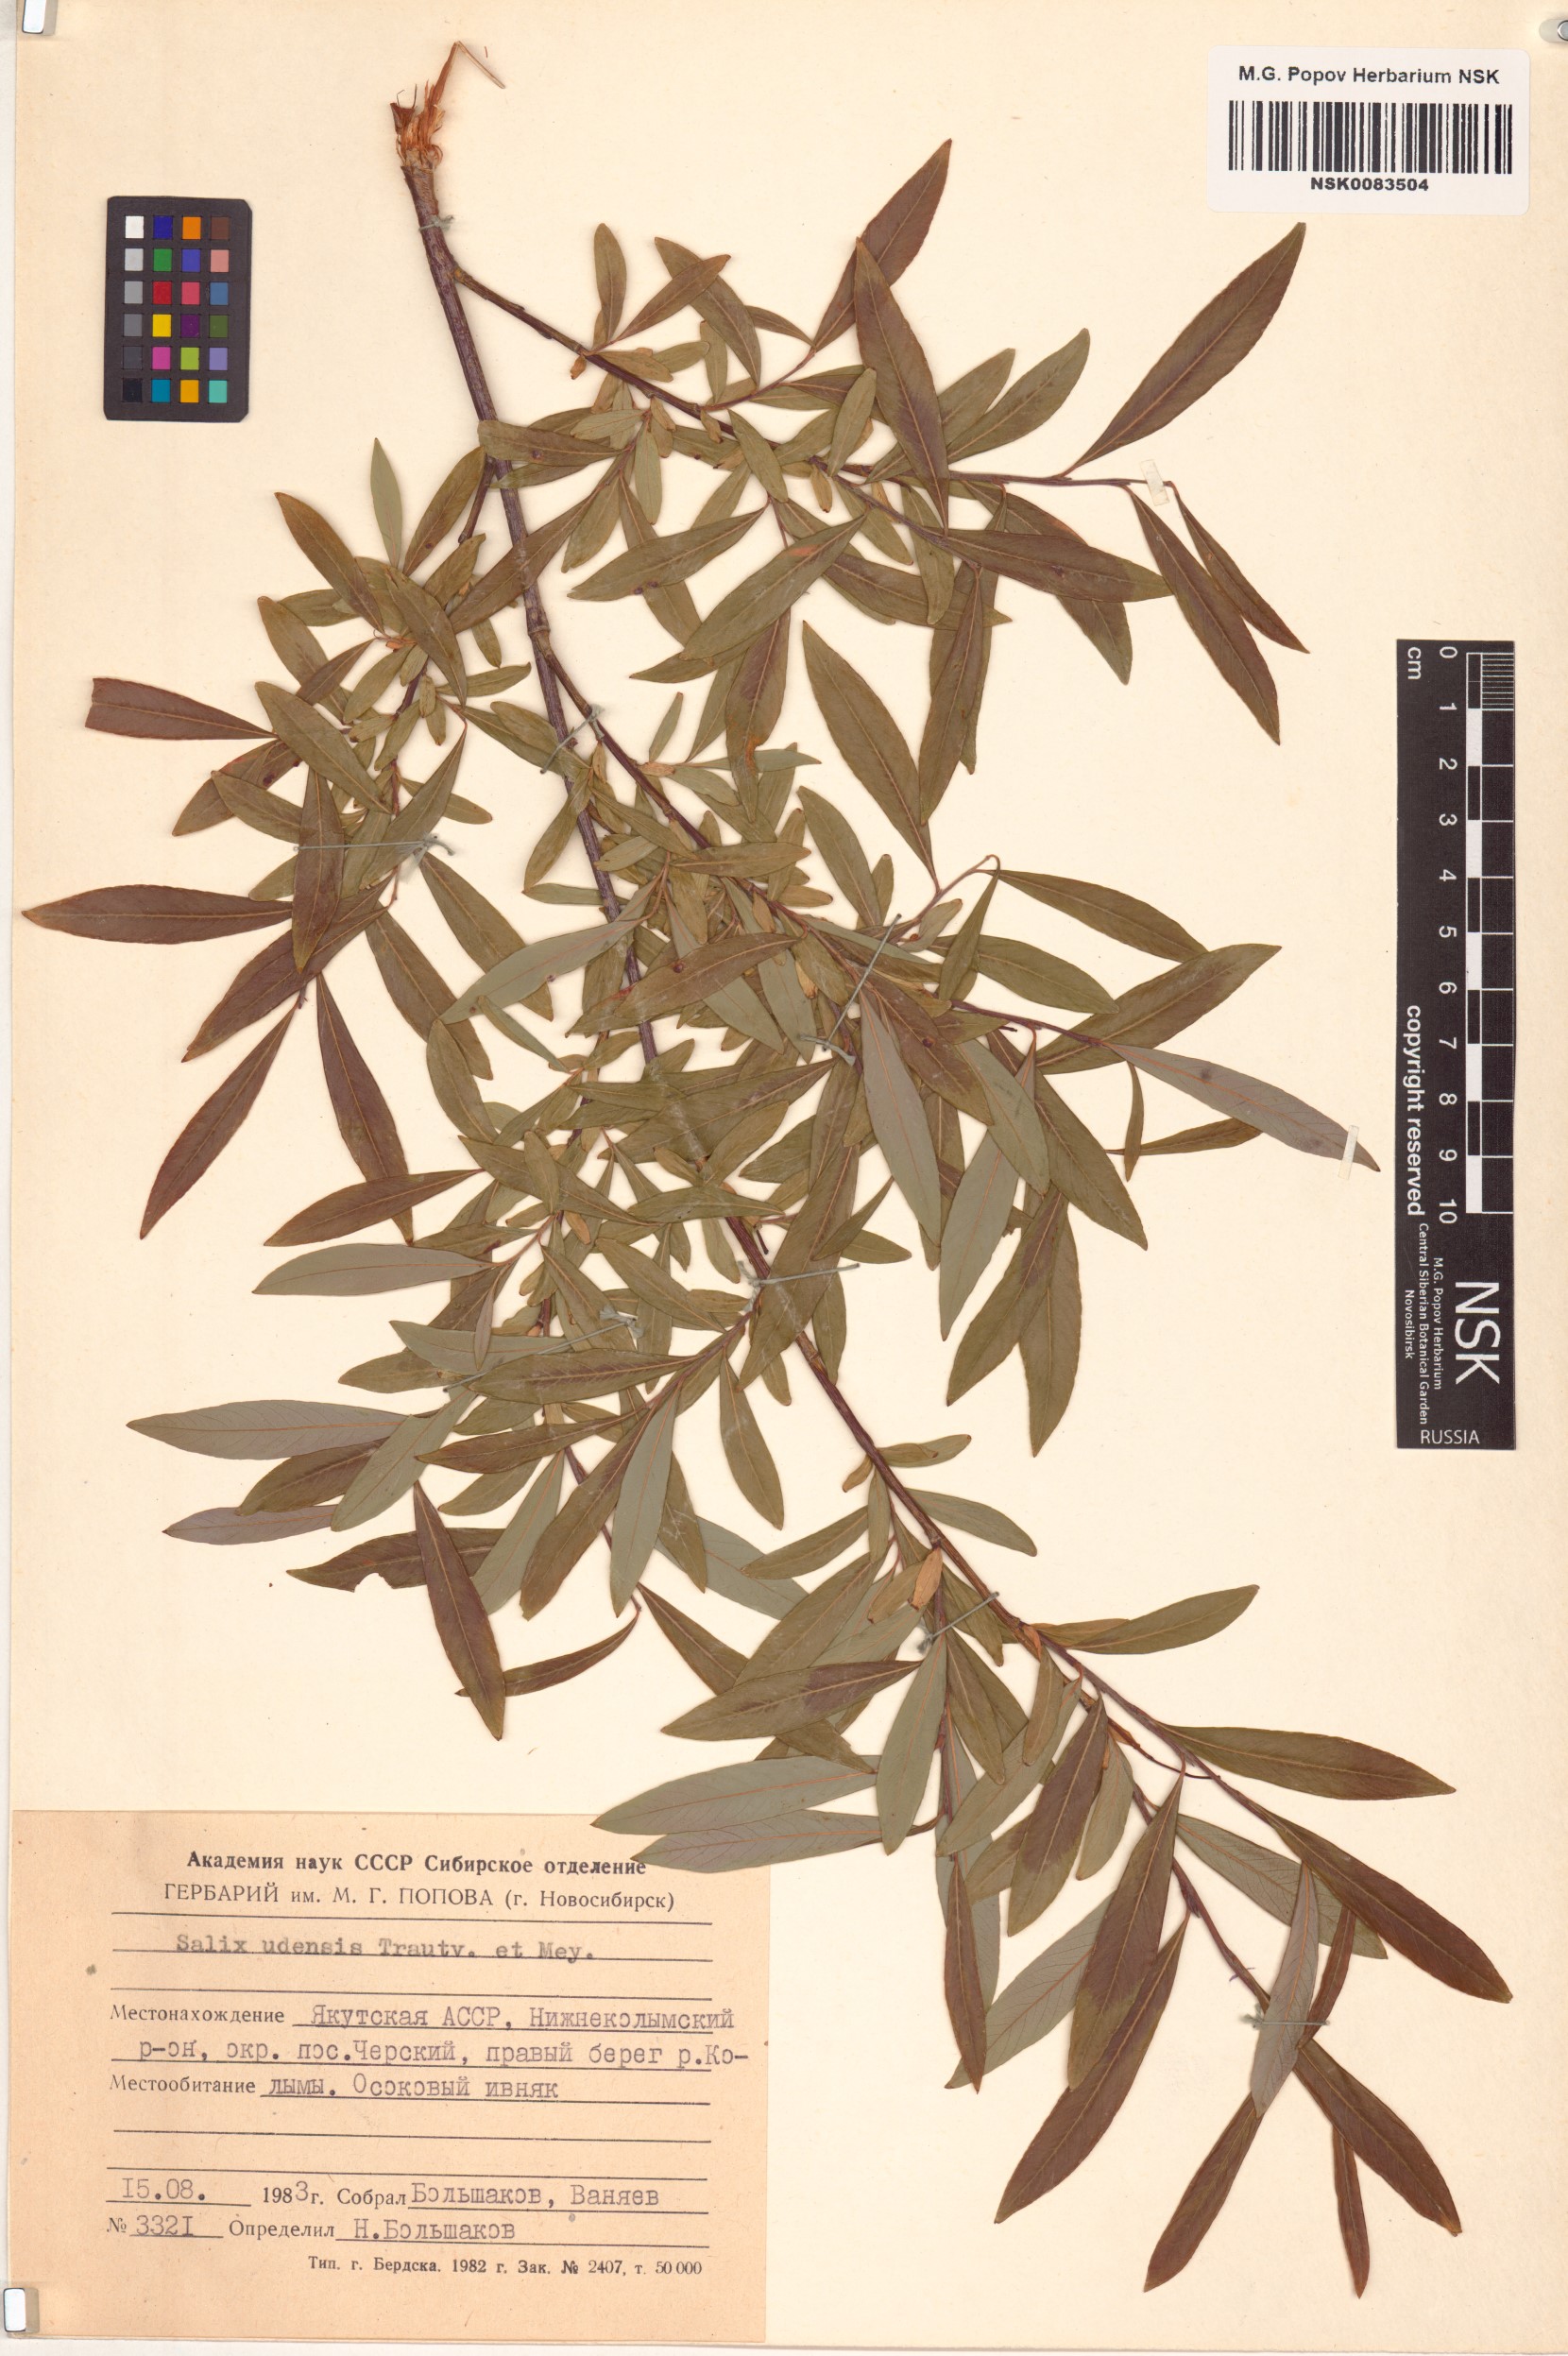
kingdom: Plantae
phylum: Tracheophyta
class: Magnoliopsida
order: Malpighiales
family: Salicaceae
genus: Salix
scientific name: Salix udensis
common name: Sachalin willow
